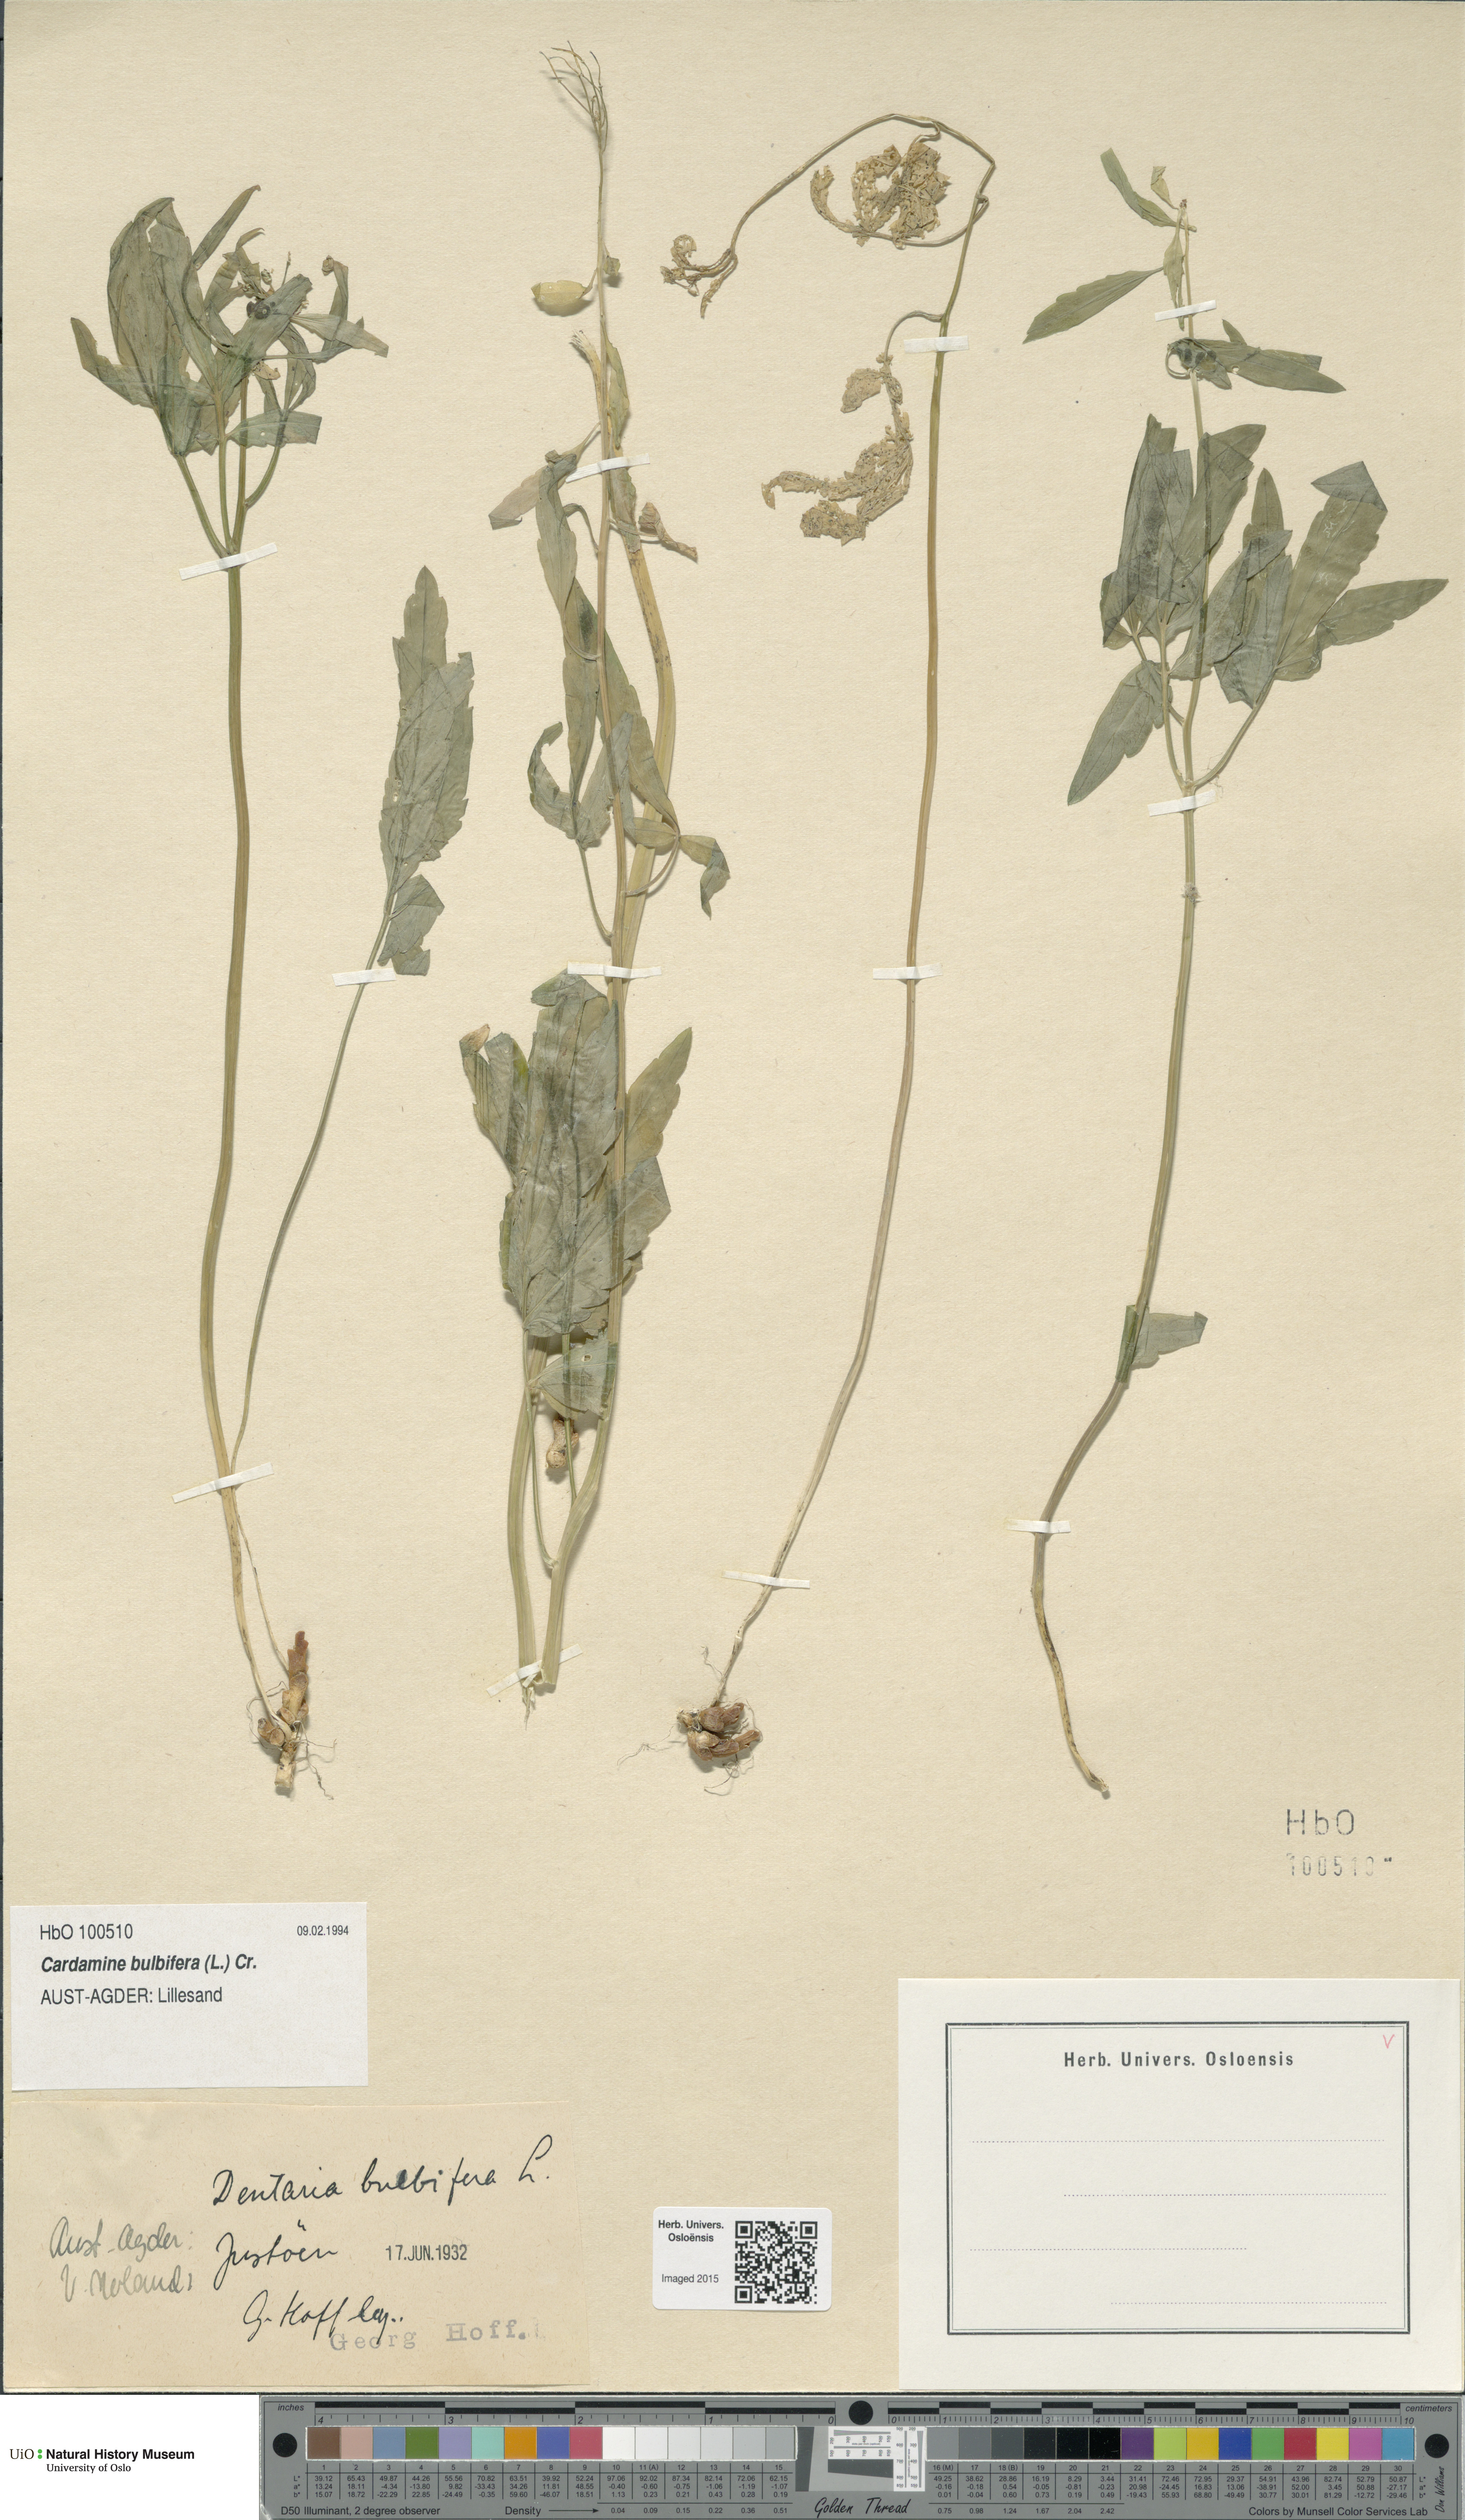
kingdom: Plantae
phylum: Tracheophyta
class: Magnoliopsida
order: Brassicales
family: Brassicaceae
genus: Cardamine
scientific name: Cardamine bulbifera
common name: Coralroot bittercress
